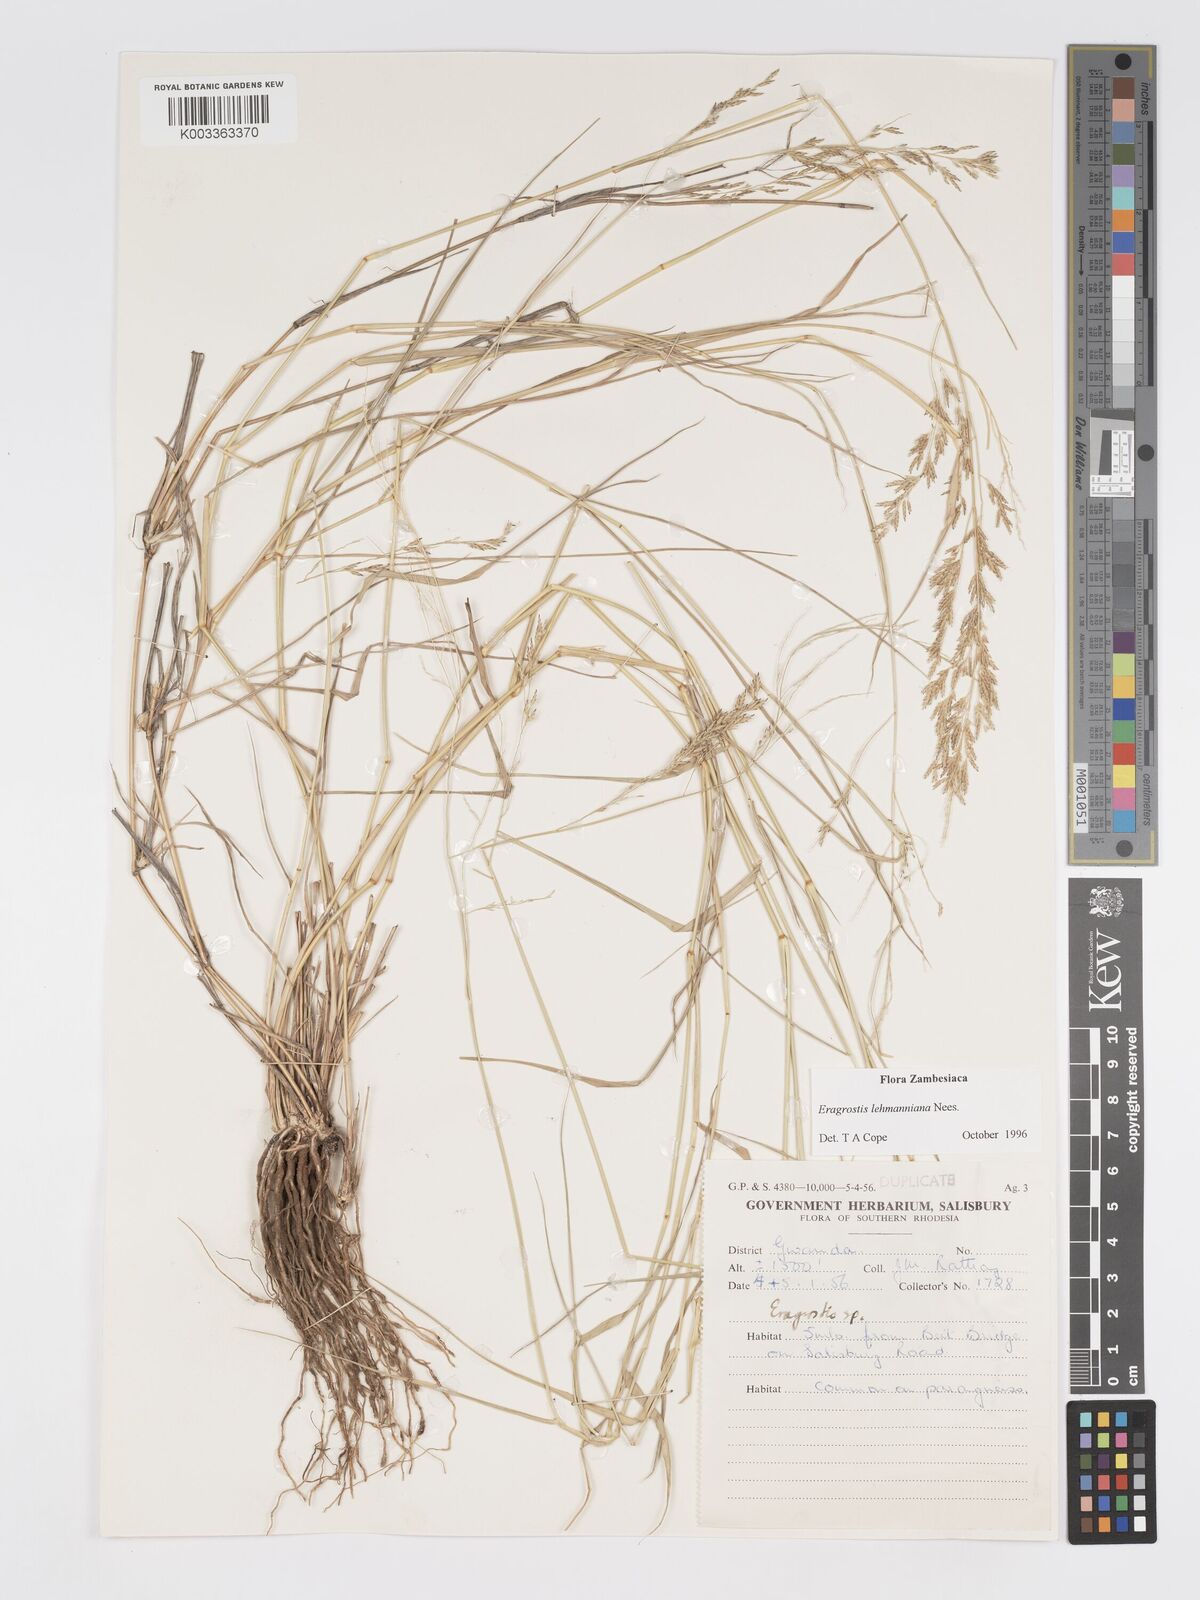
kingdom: Plantae
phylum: Tracheophyta
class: Liliopsida
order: Poales
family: Poaceae
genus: Eragrostis
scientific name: Eragrostis lehmanniana
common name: Lehmann lovegrass
